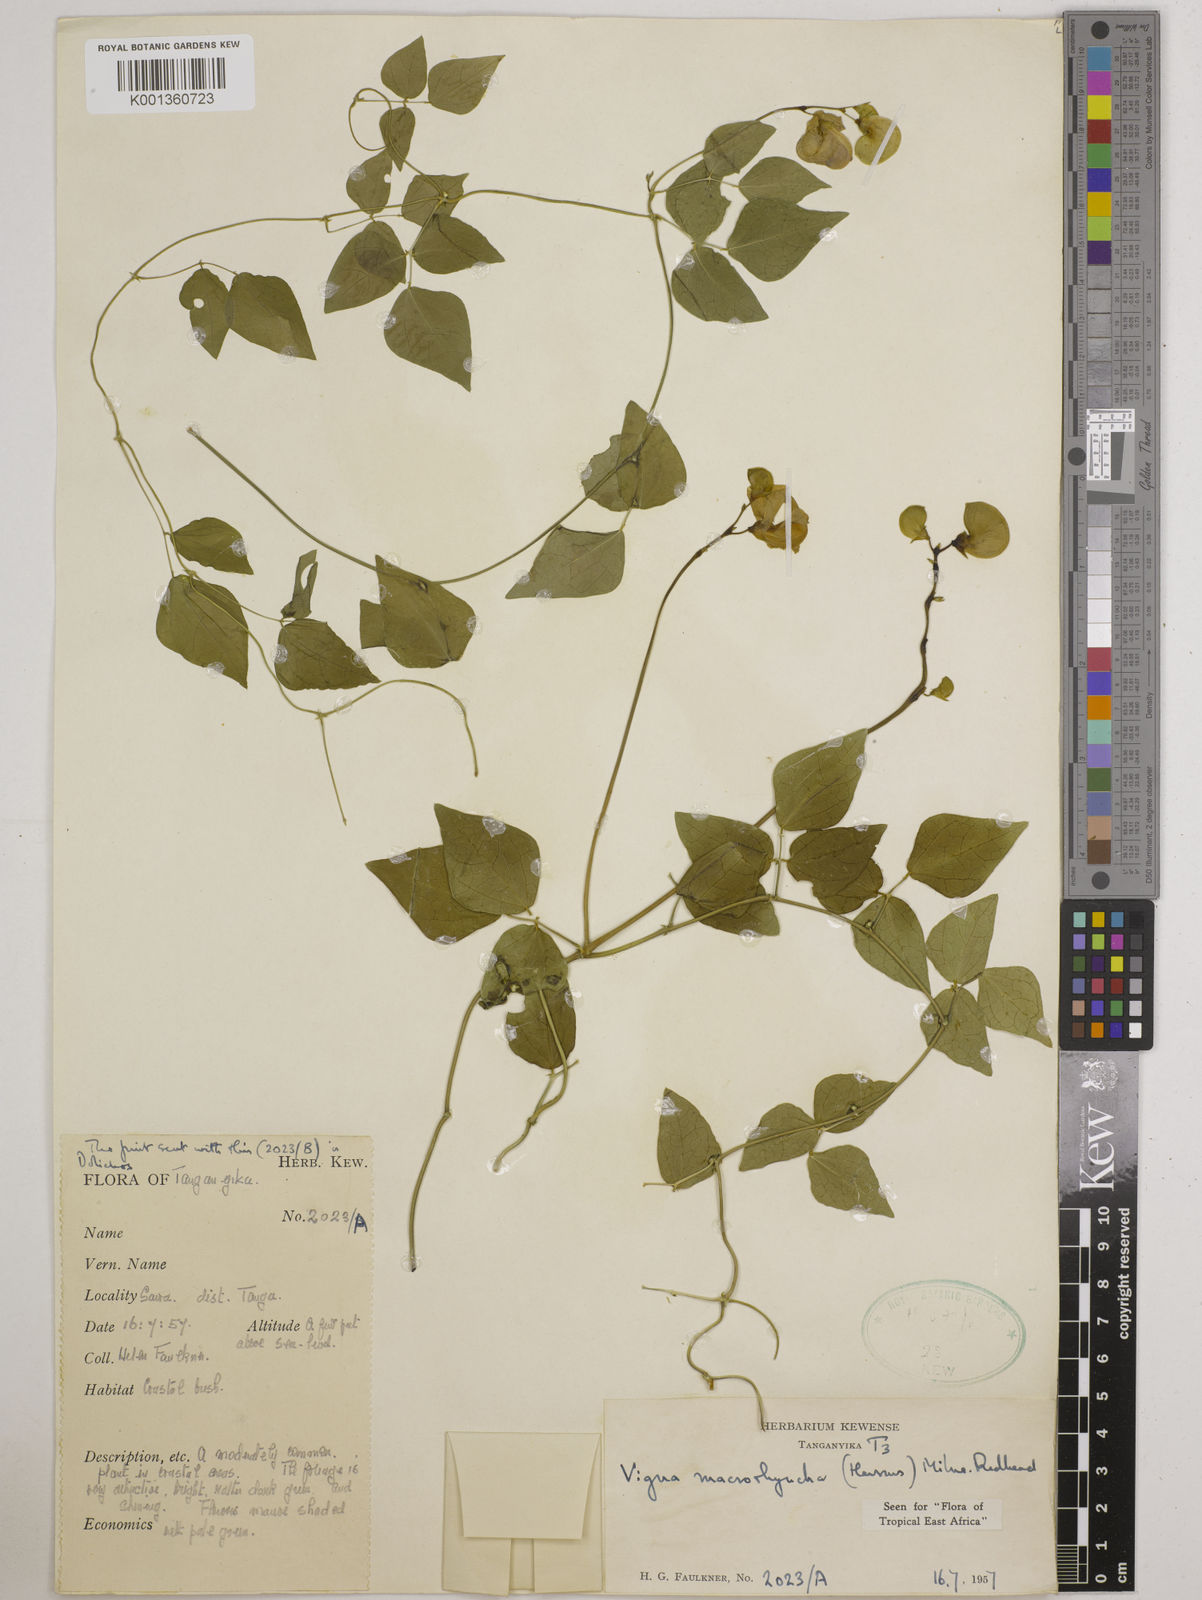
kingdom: Plantae
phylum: Tracheophyta
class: Magnoliopsida
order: Fabales
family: Fabaceae
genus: Wajira
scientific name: Wajira grahamiana
